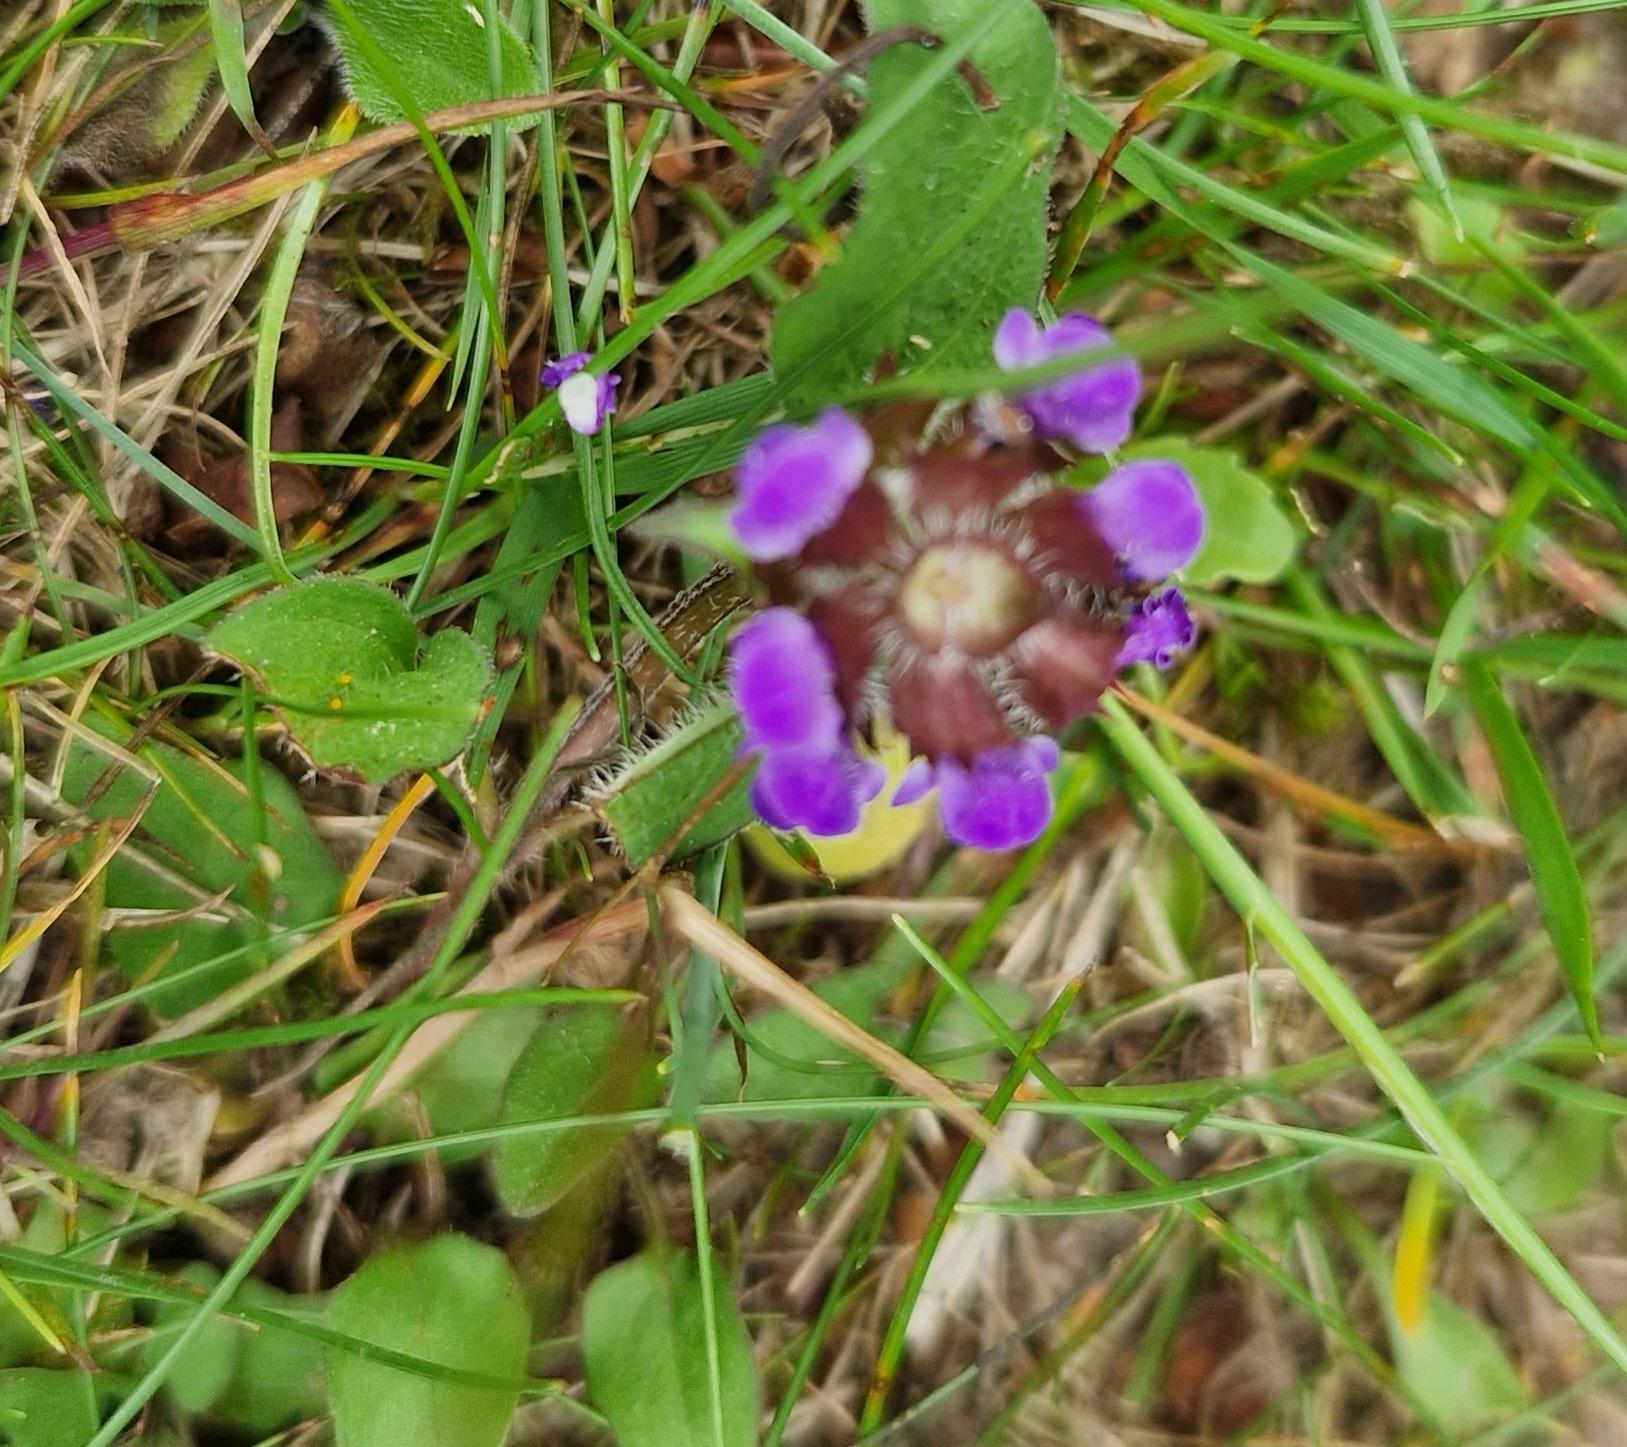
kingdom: Plantae
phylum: Tracheophyta
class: Magnoliopsida
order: Lamiales
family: Lamiaceae
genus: Prunella
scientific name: Prunella vulgaris
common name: Almindelig brunelle
